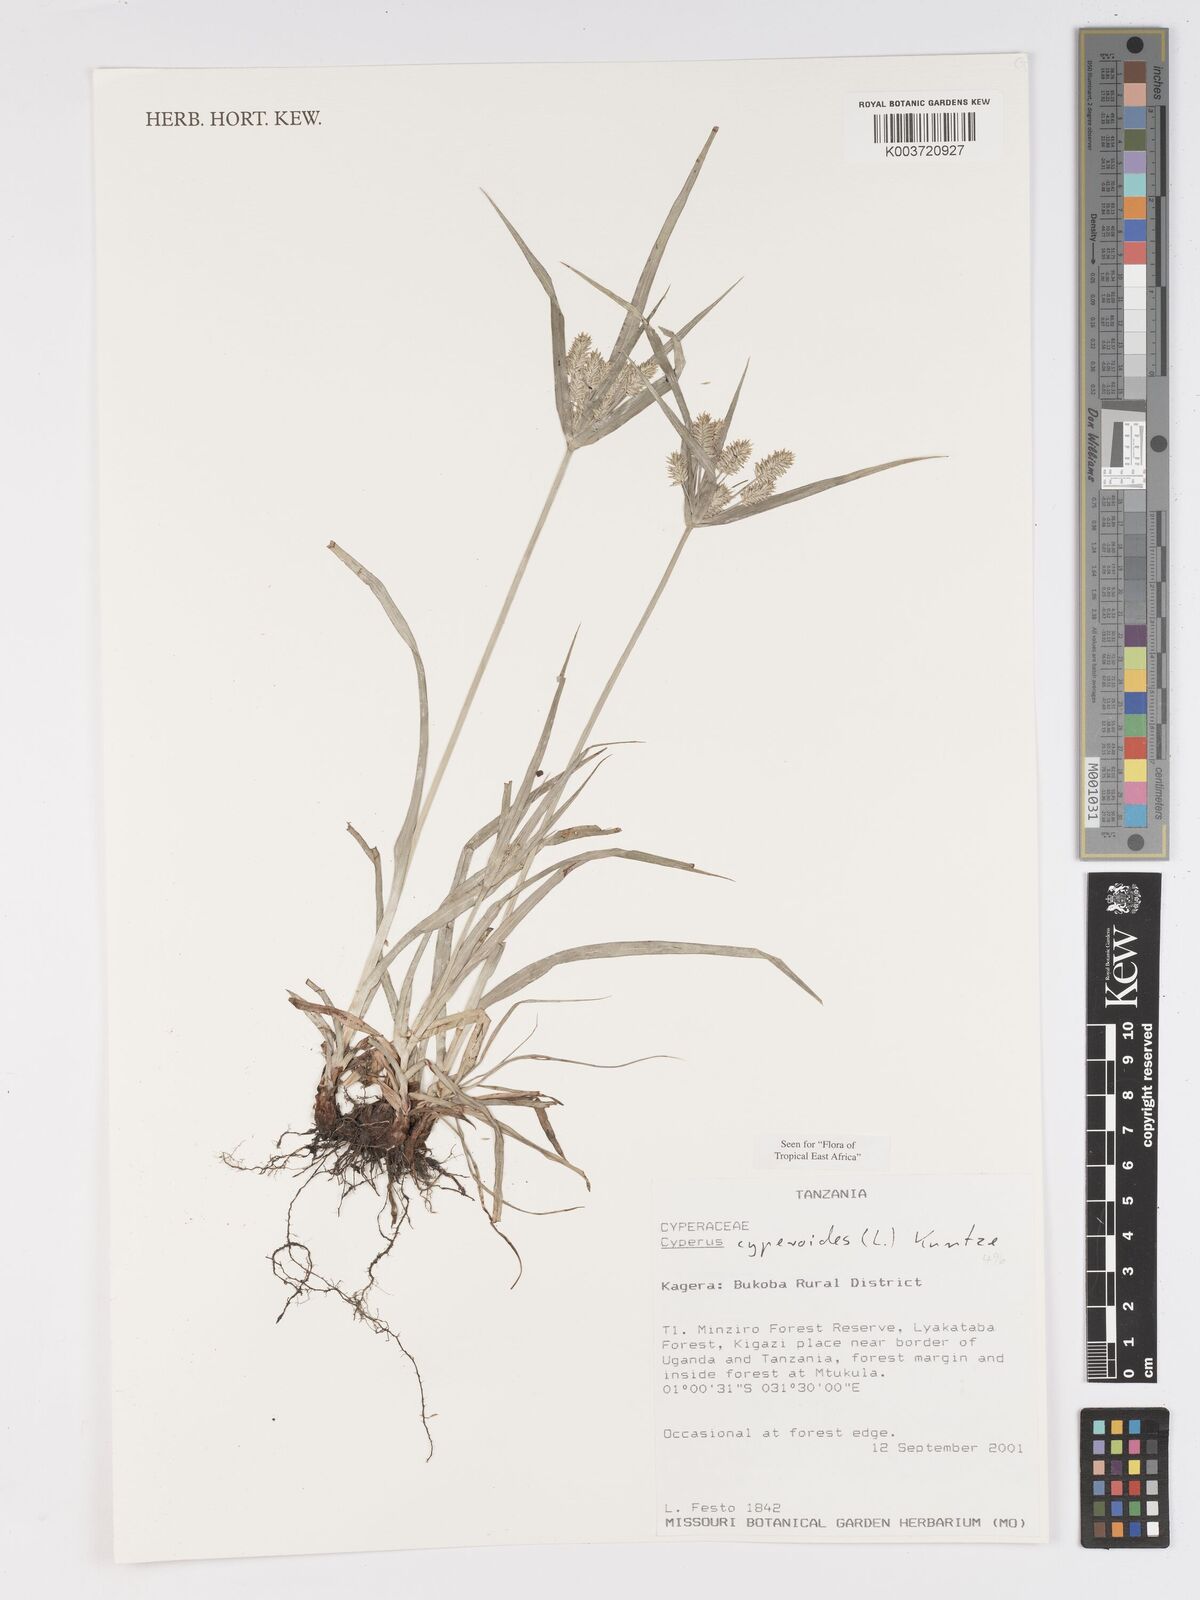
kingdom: Plantae
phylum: Tracheophyta
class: Liliopsida
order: Poales
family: Cyperaceae
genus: Cyperus
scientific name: Cyperus cyperoides
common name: Pacific island flat sedge
